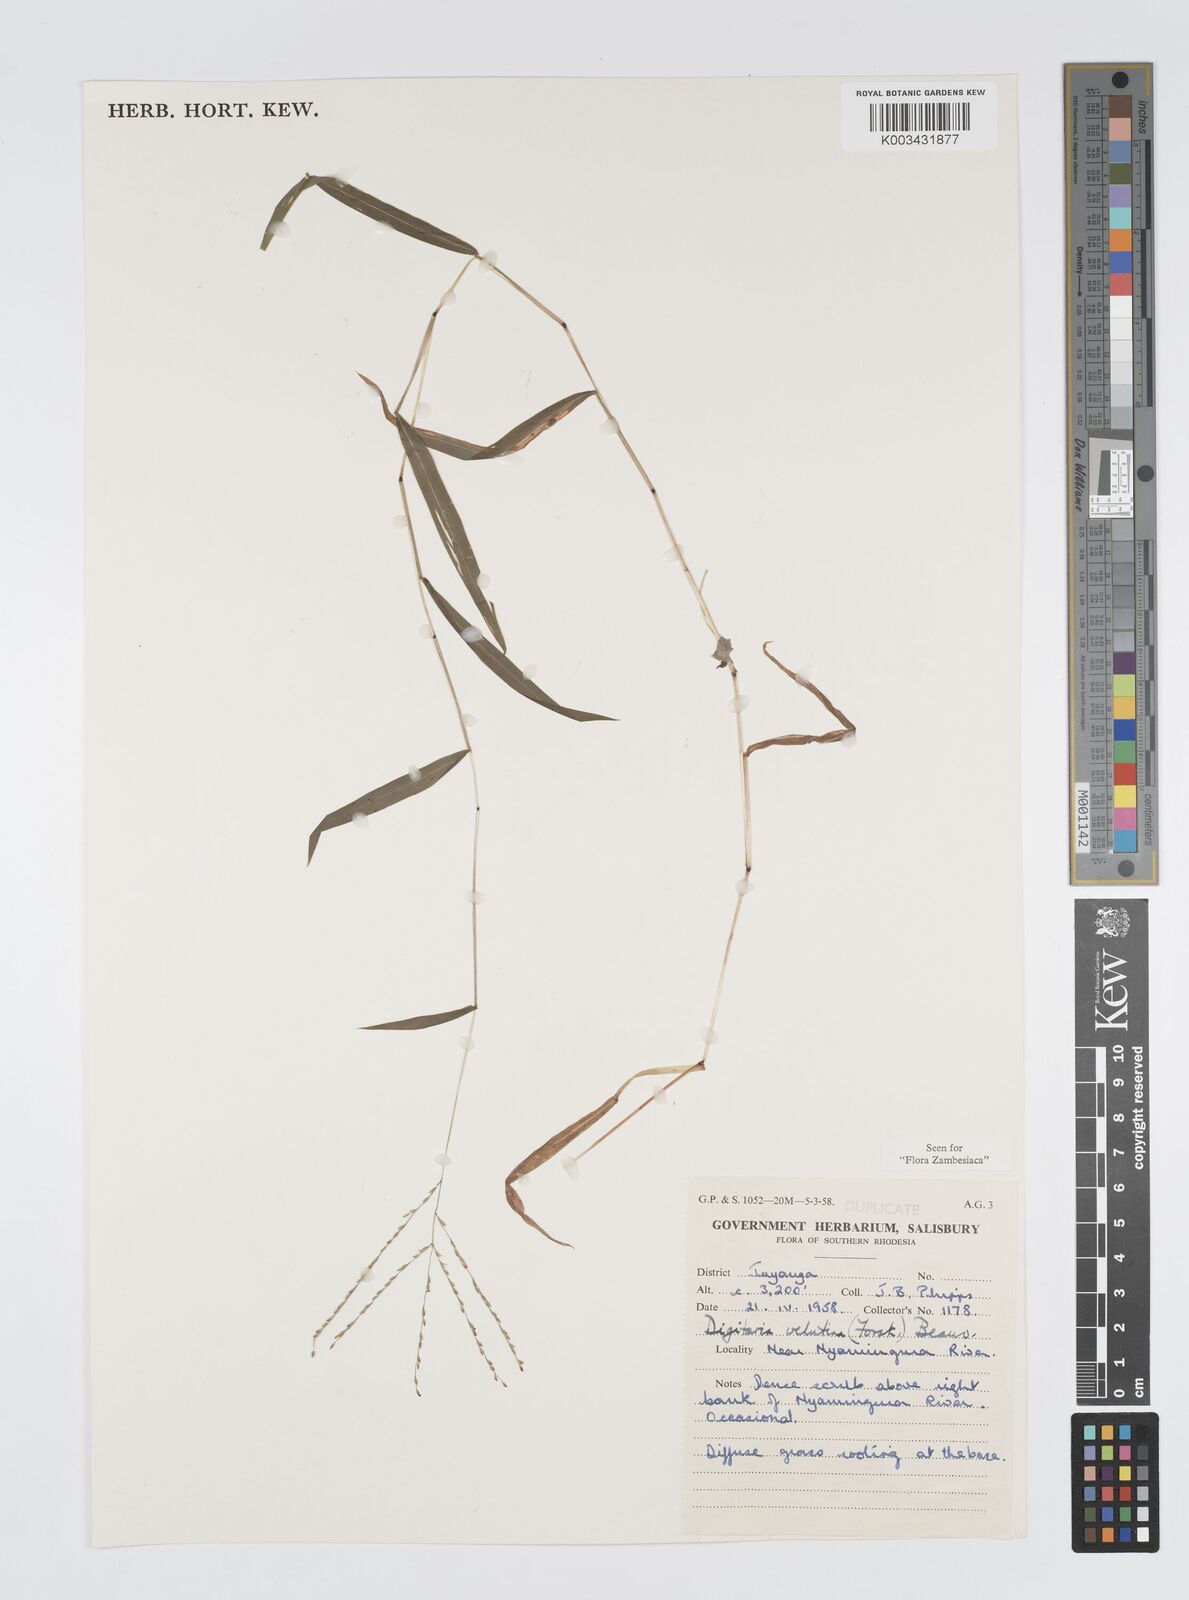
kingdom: Plantae
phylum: Tracheophyta
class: Liliopsida
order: Poales
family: Poaceae
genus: Digitaria
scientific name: Digitaria velutina
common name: Long-plume finger grass
